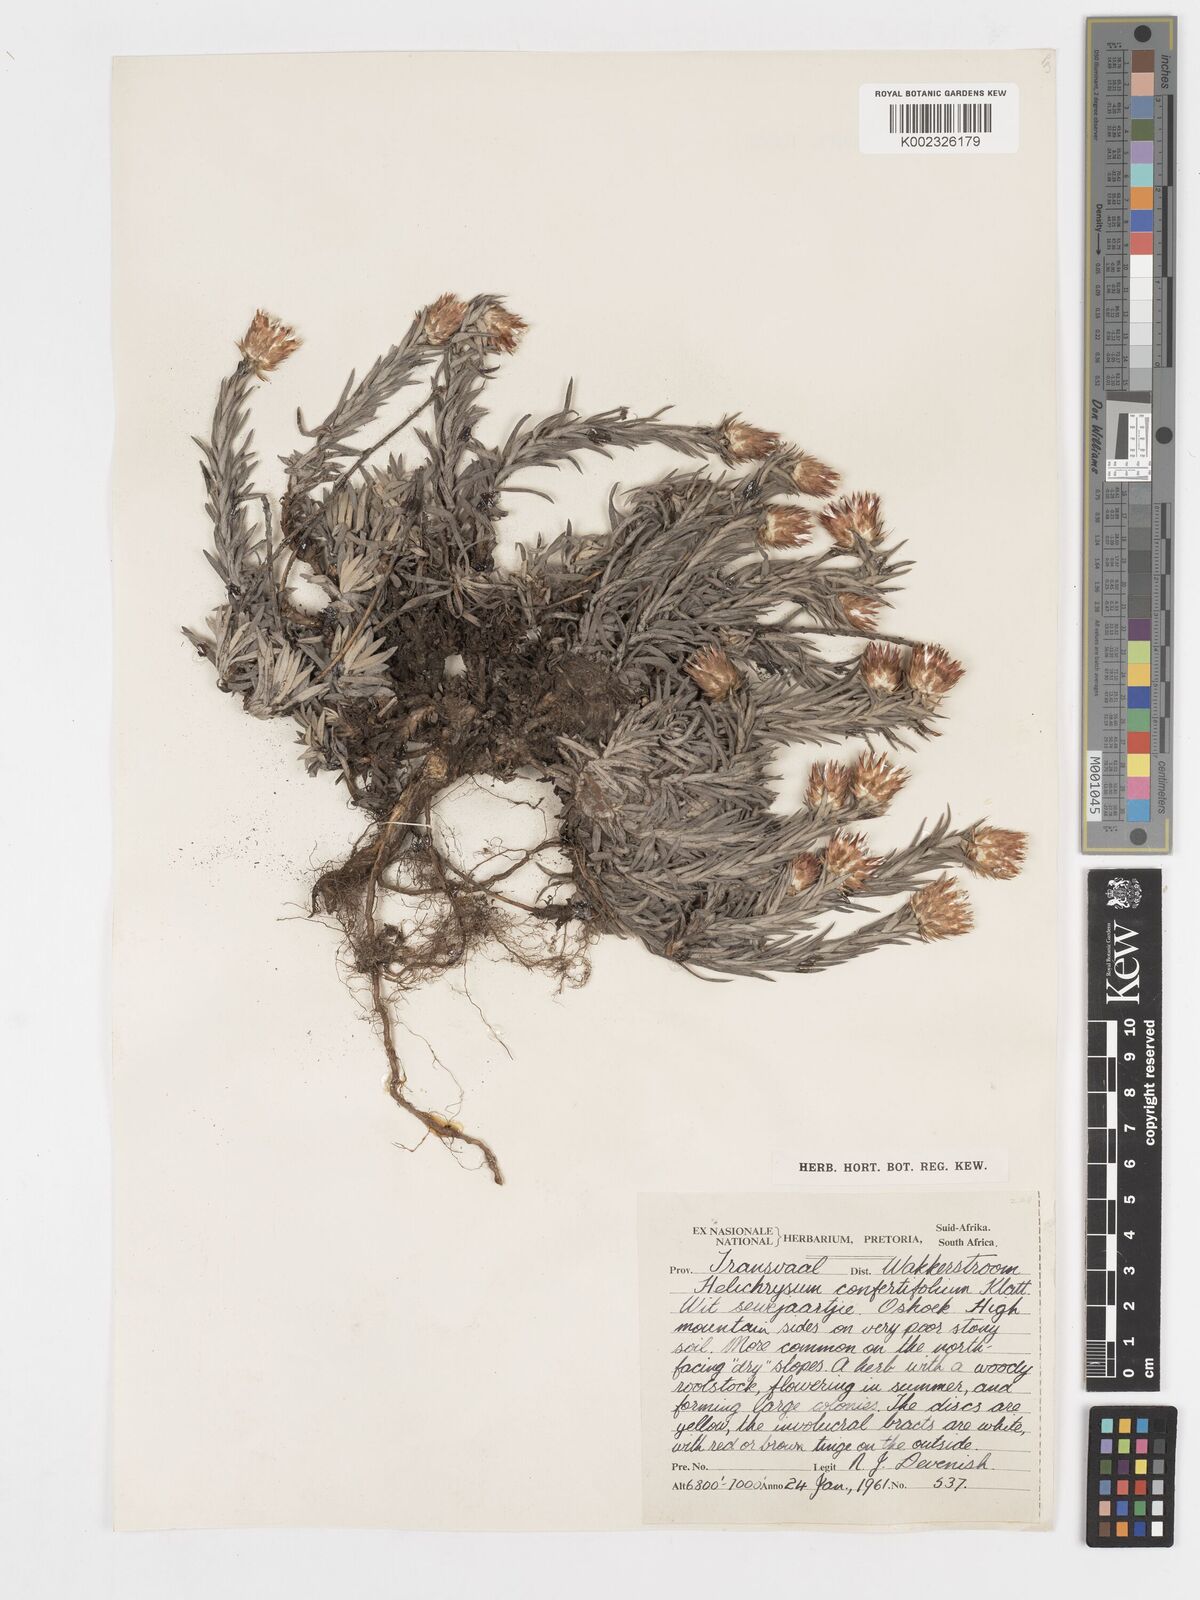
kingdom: Plantae
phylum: Tracheophyta
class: Magnoliopsida
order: Asterales
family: Asteraceae
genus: Helichrysum
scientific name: Helichrysum confertifolium
